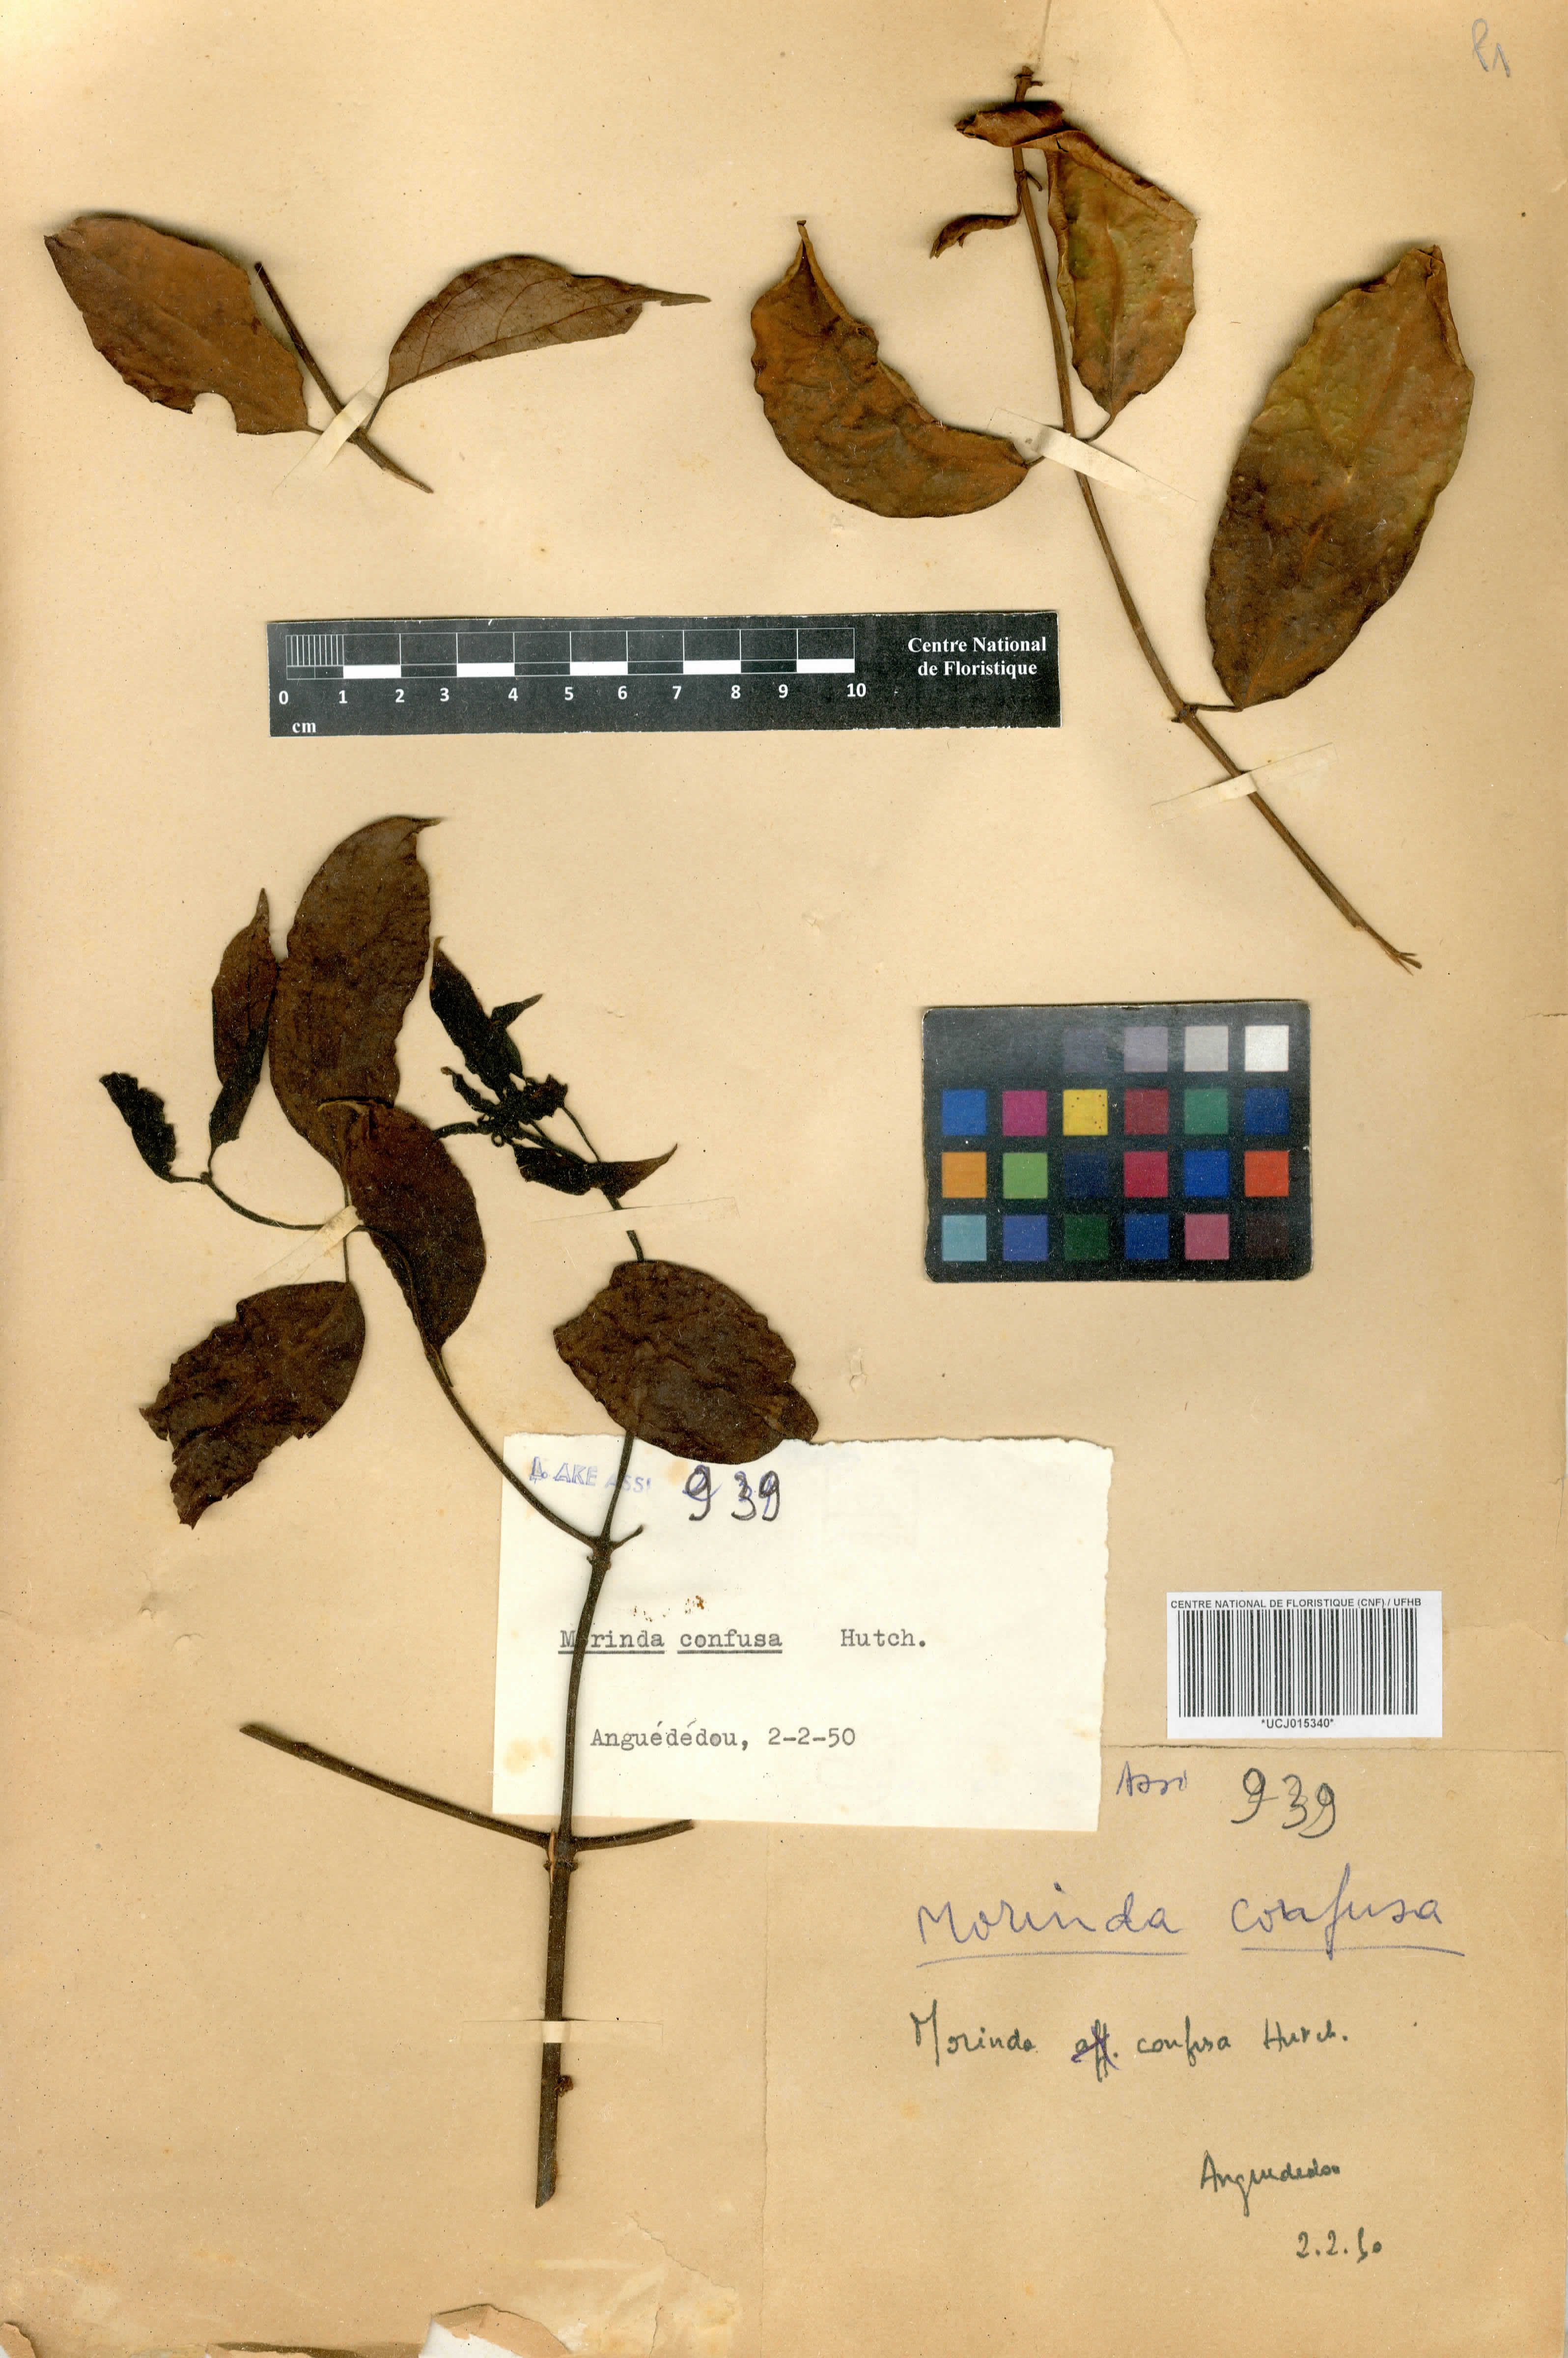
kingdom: Plantae
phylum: Tracheophyta
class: Magnoliopsida
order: Gentianales
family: Rubiaceae
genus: Morinda
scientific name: Morinda morindoides
